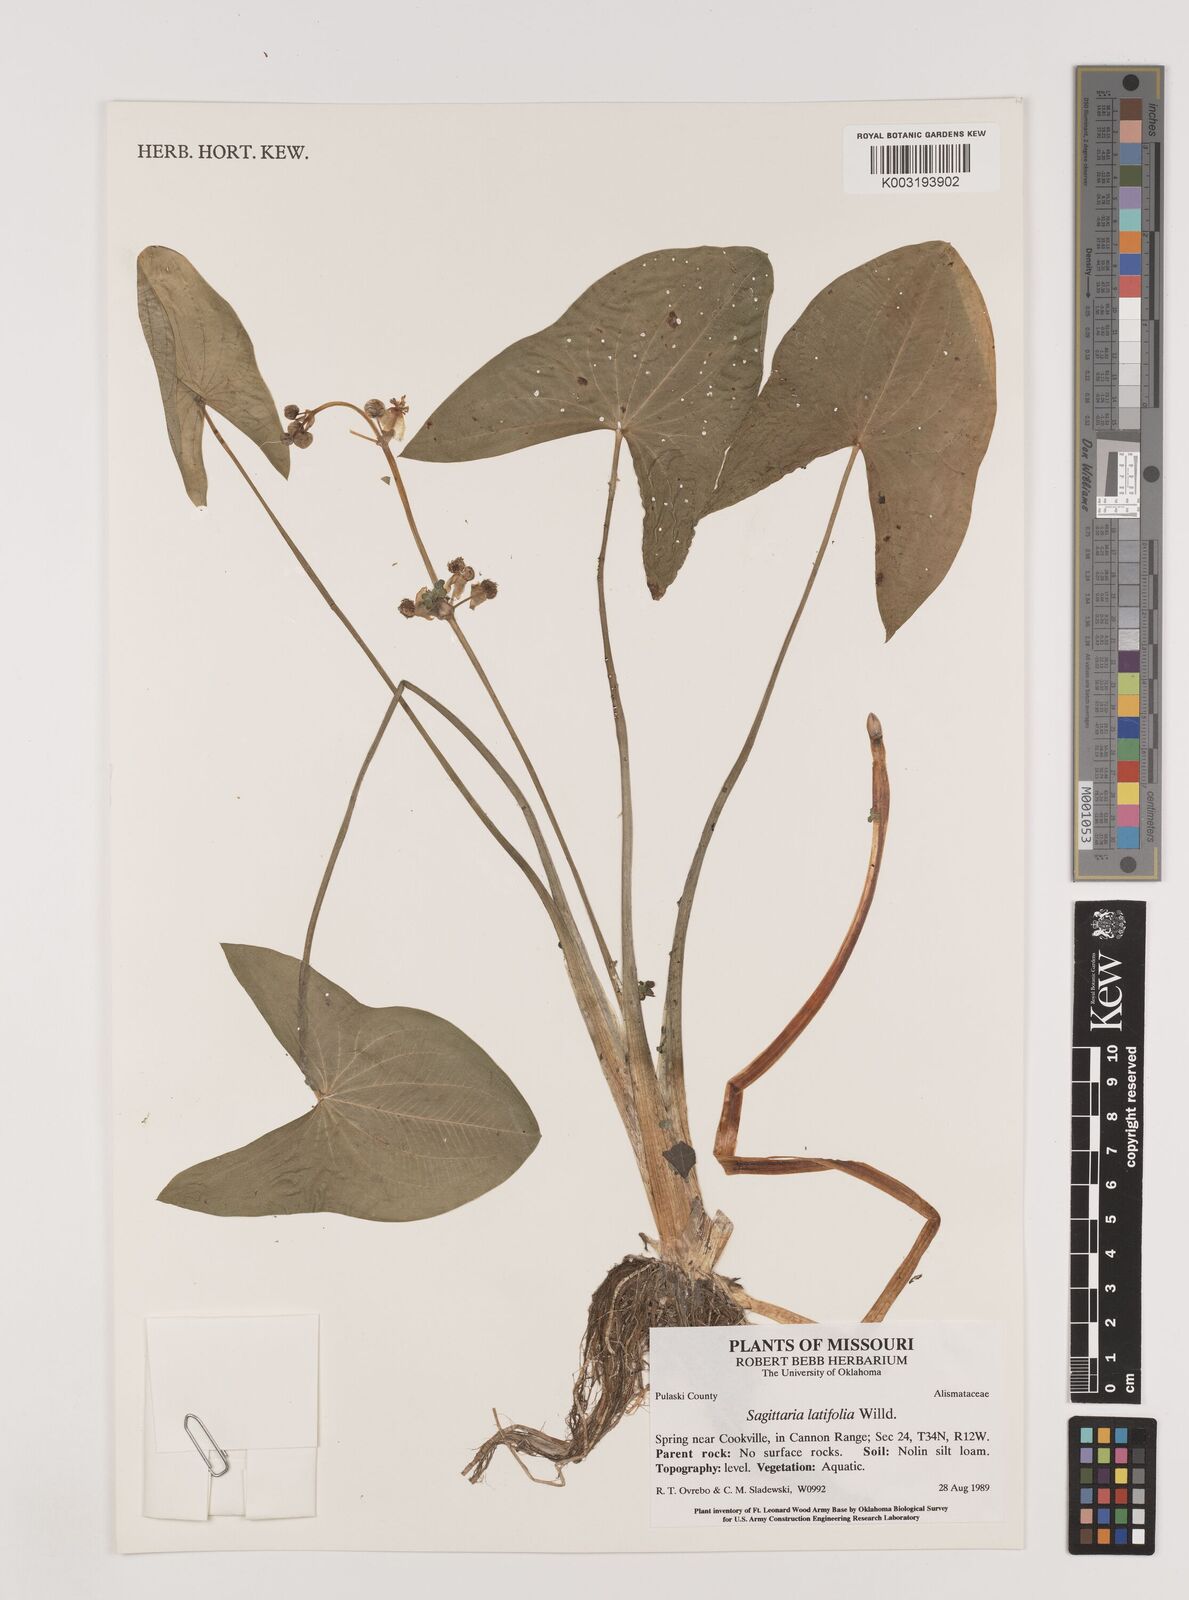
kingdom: Plantae
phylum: Tracheophyta
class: Liliopsida
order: Alismatales
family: Alismataceae
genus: Sagittaria
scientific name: Sagittaria latifolia
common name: Duck-potato
